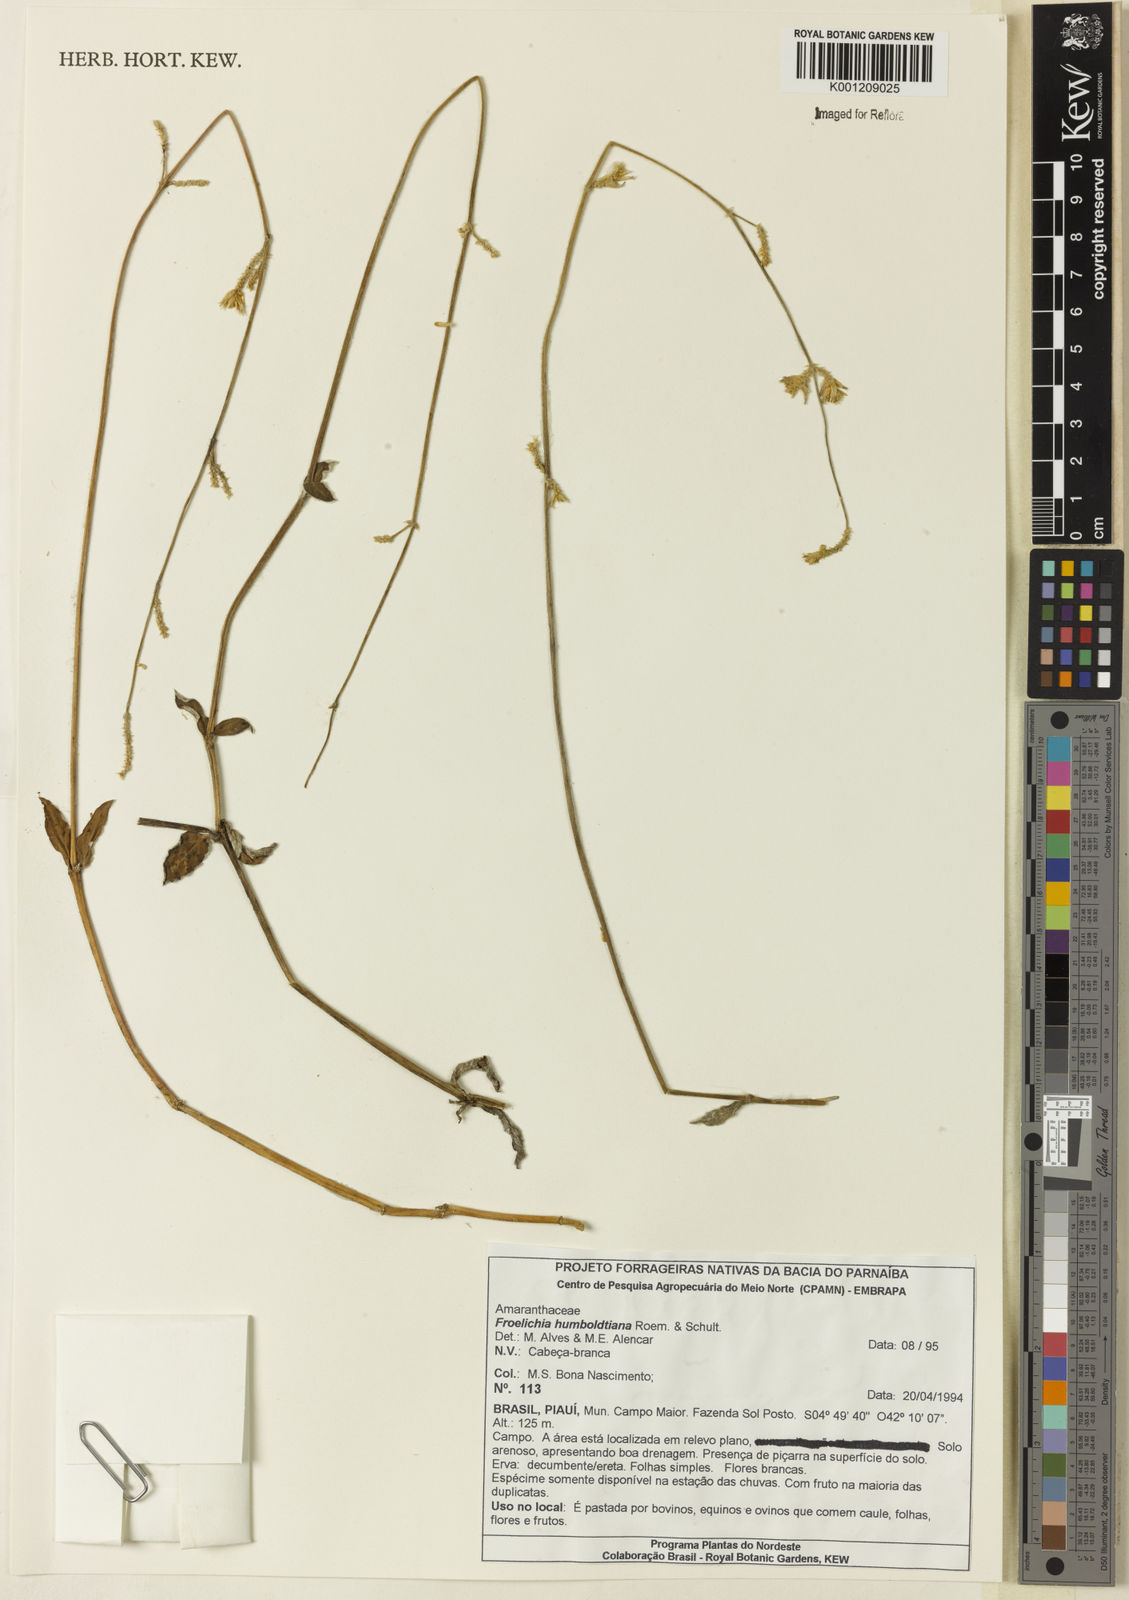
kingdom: Plantae
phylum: Tracheophyta
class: Magnoliopsida
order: Caryophyllales
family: Amaranthaceae
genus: Froelichia
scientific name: Froelichia humboldtiana
